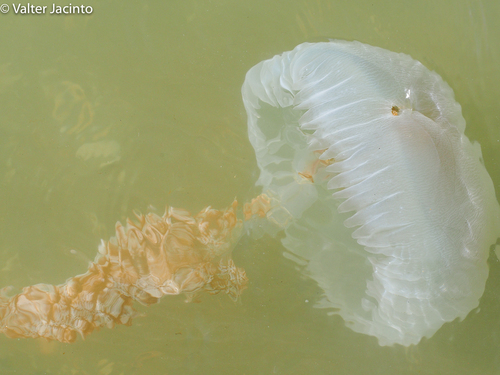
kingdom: Animalia
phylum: Cnidaria
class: Scyphozoa
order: Rhizostomeae
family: Catostylidae
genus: Catostylus
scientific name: Catostylus tagi
